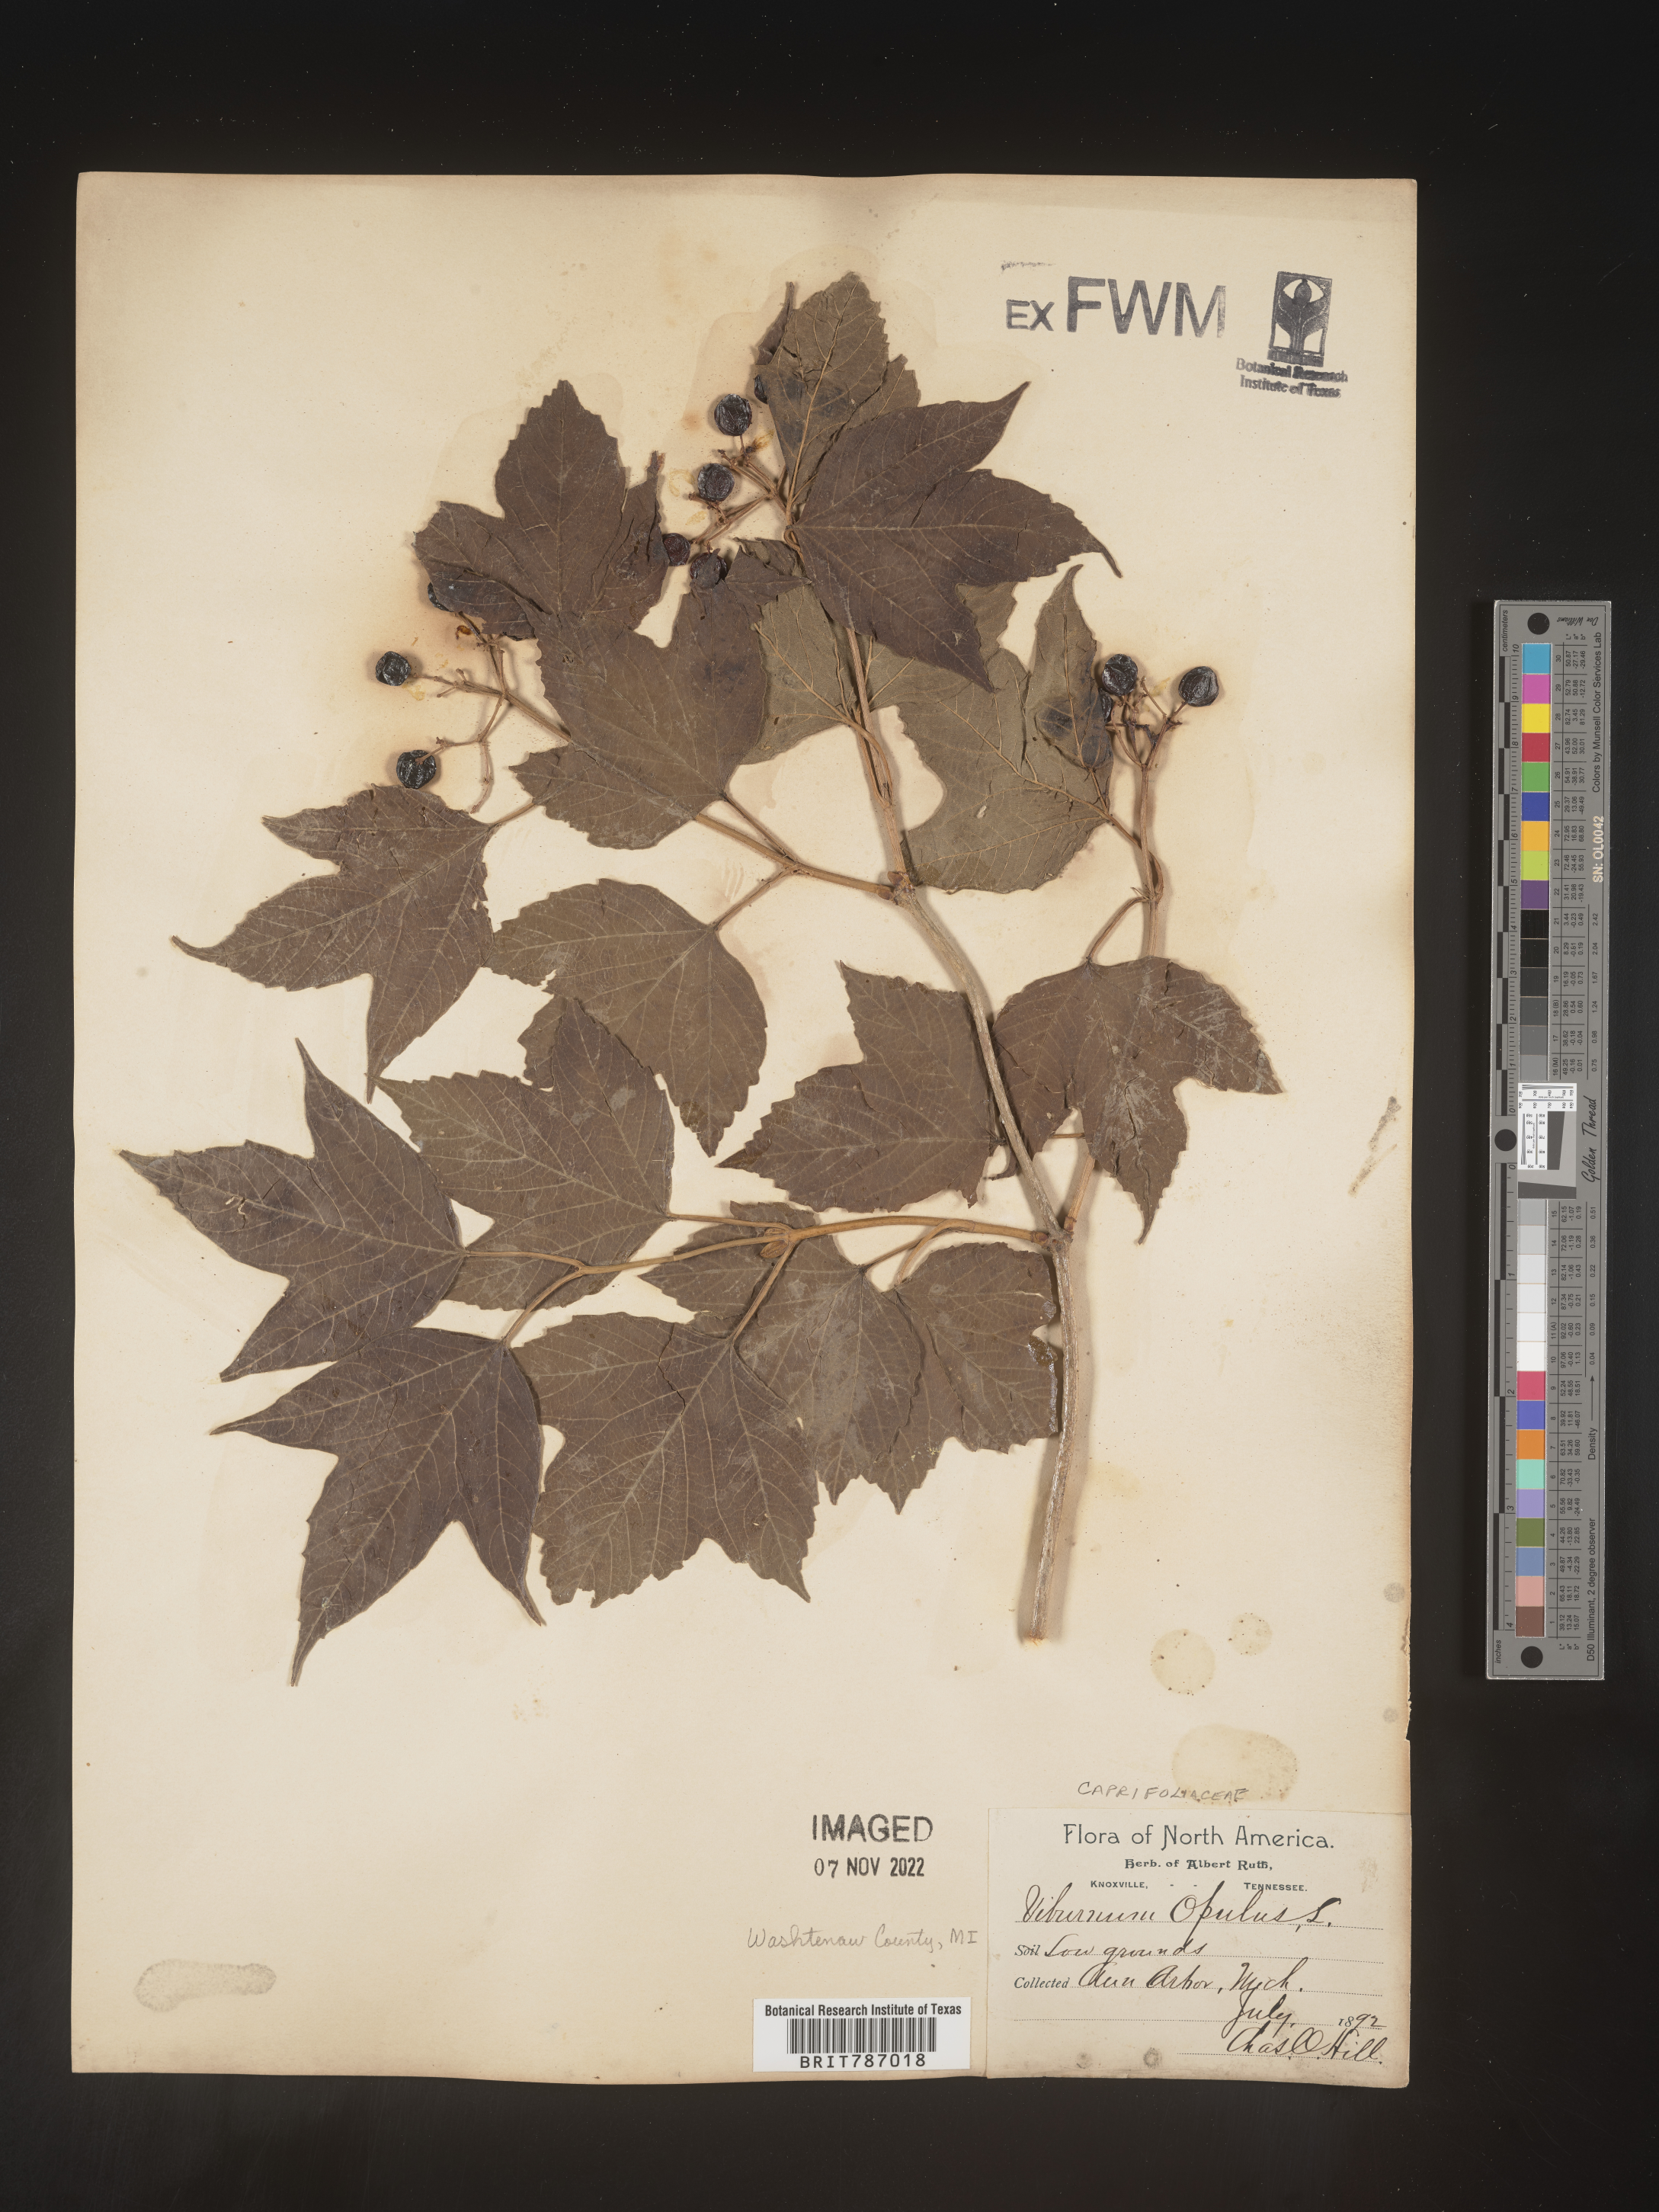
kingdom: Plantae
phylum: Tracheophyta
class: Magnoliopsida
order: Dipsacales
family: Viburnaceae
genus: Viburnum
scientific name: Viburnum opulus
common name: Guelder-rose
